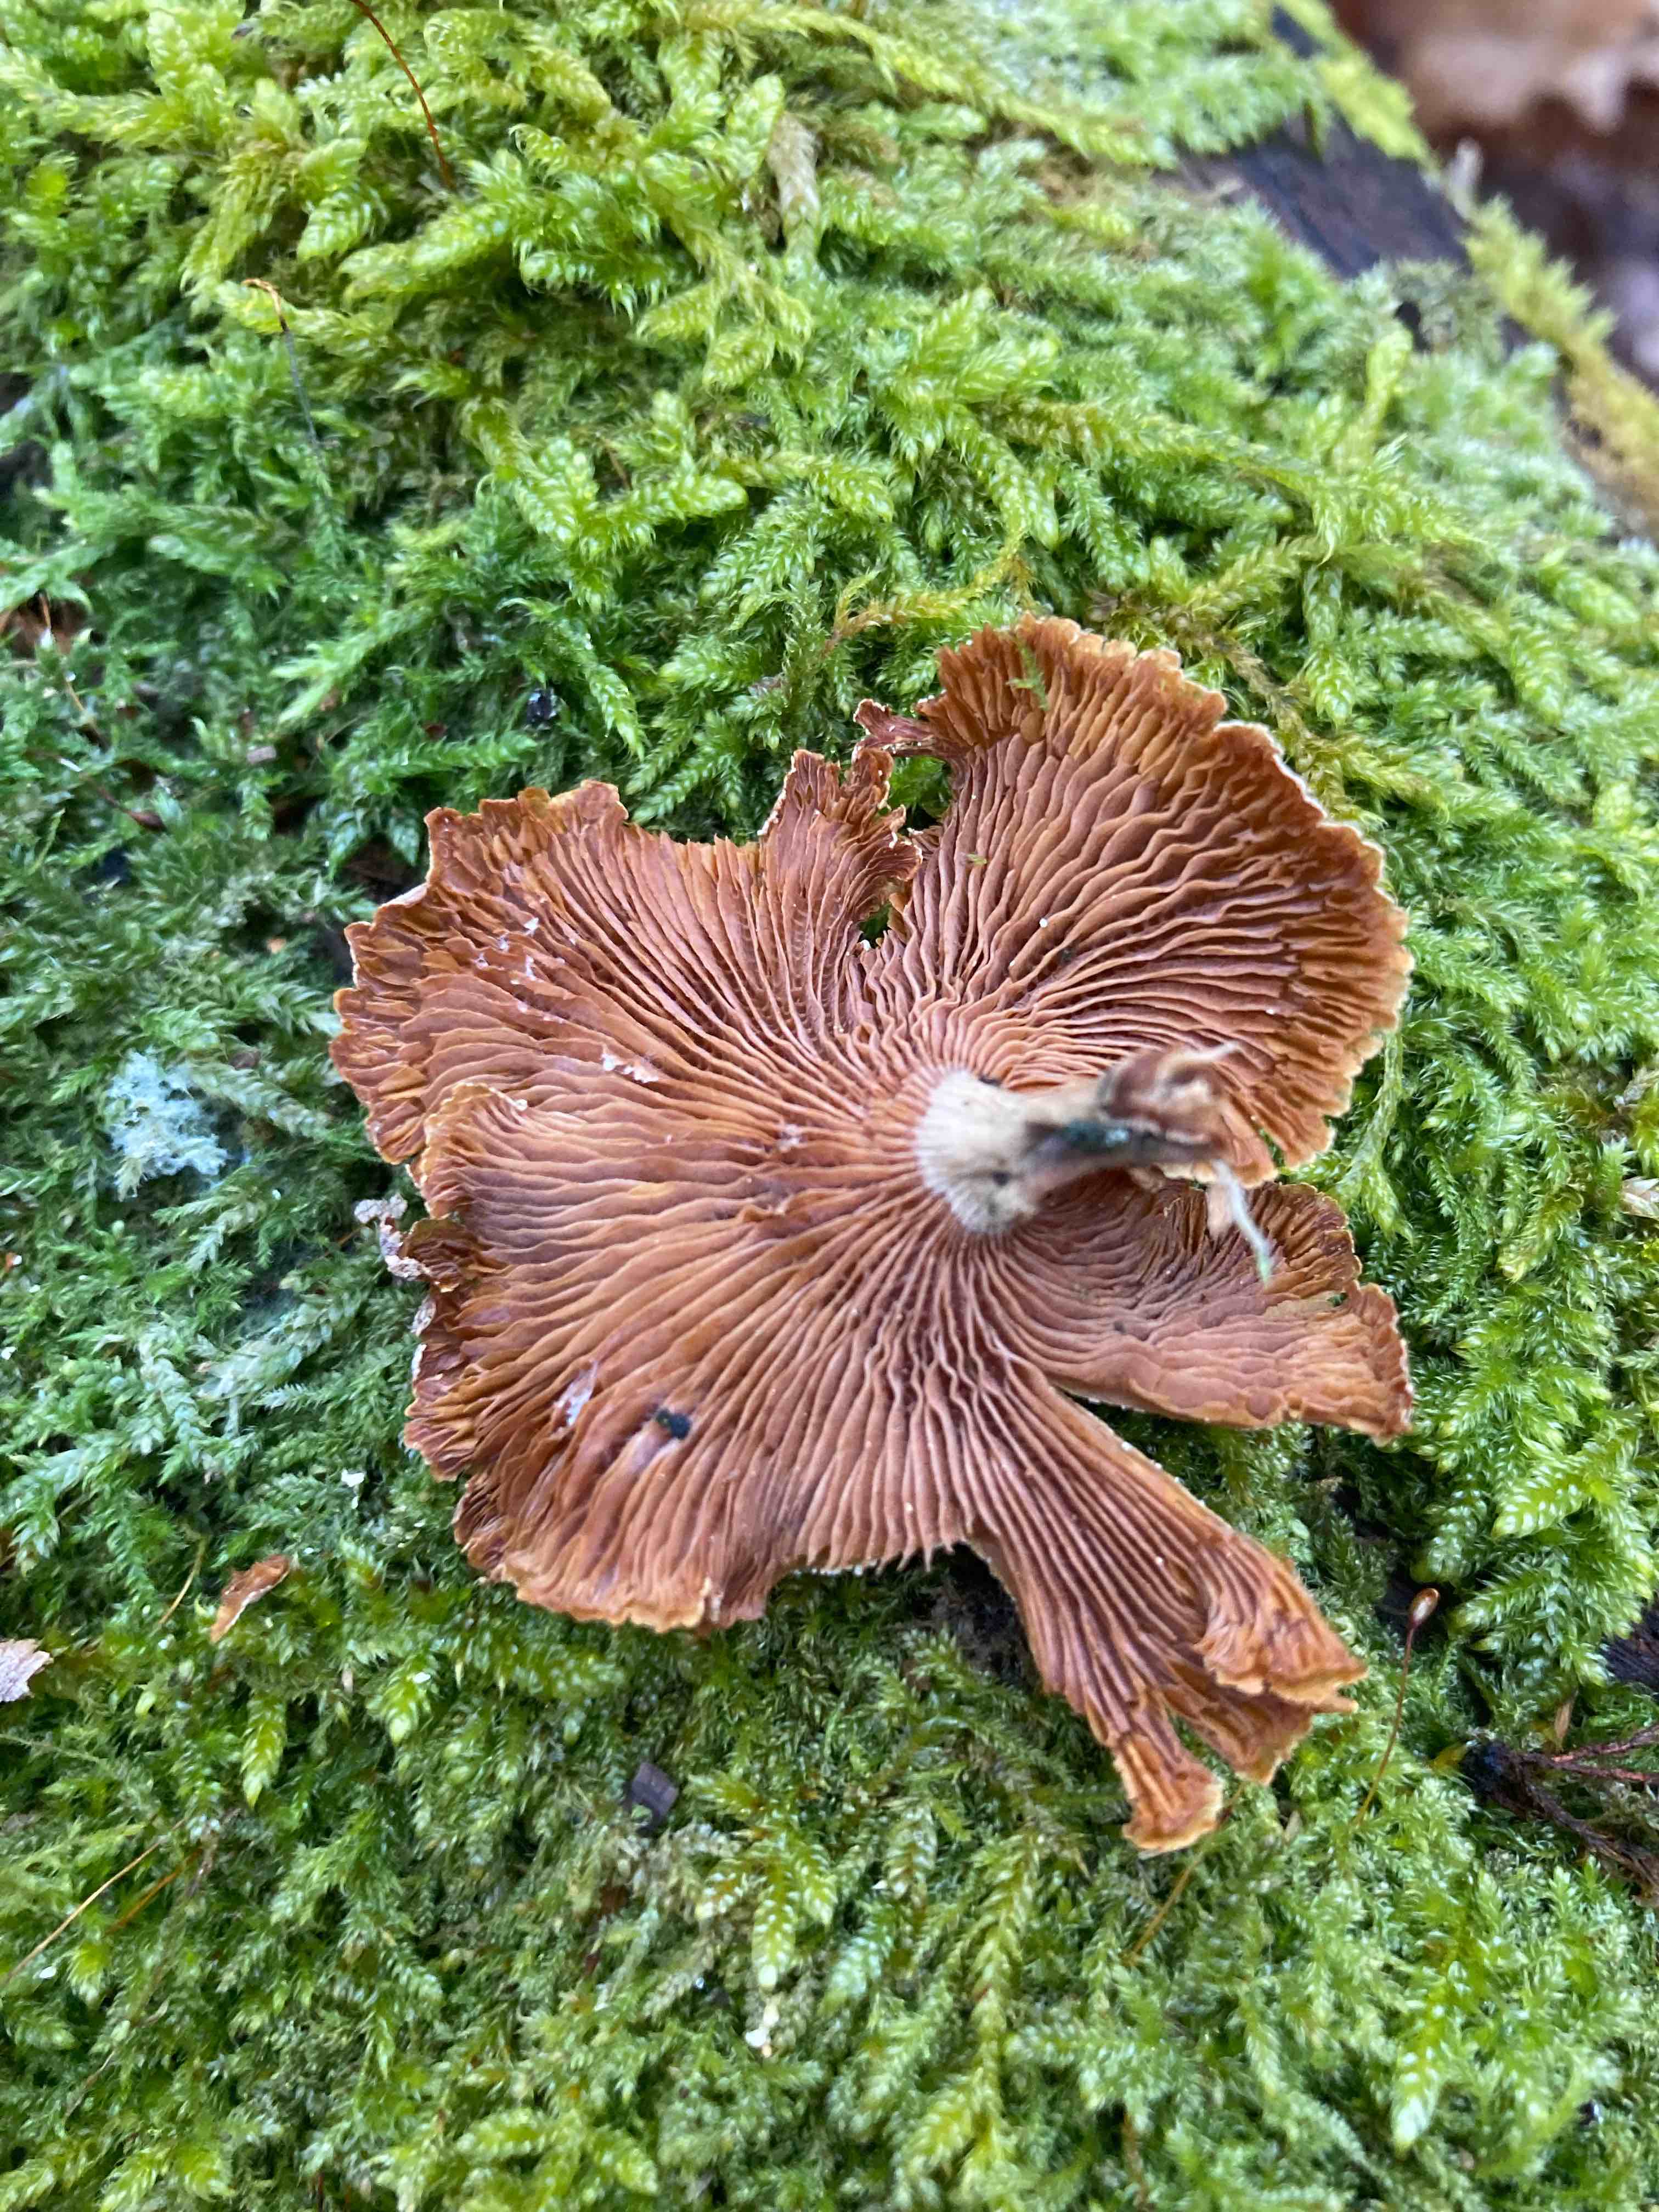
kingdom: Fungi
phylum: Basidiomycota
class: Agaricomycetes
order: Agaricales
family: Mycenaceae
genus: Panellus
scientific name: Panellus stipticus
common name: kliddet epaulethat
